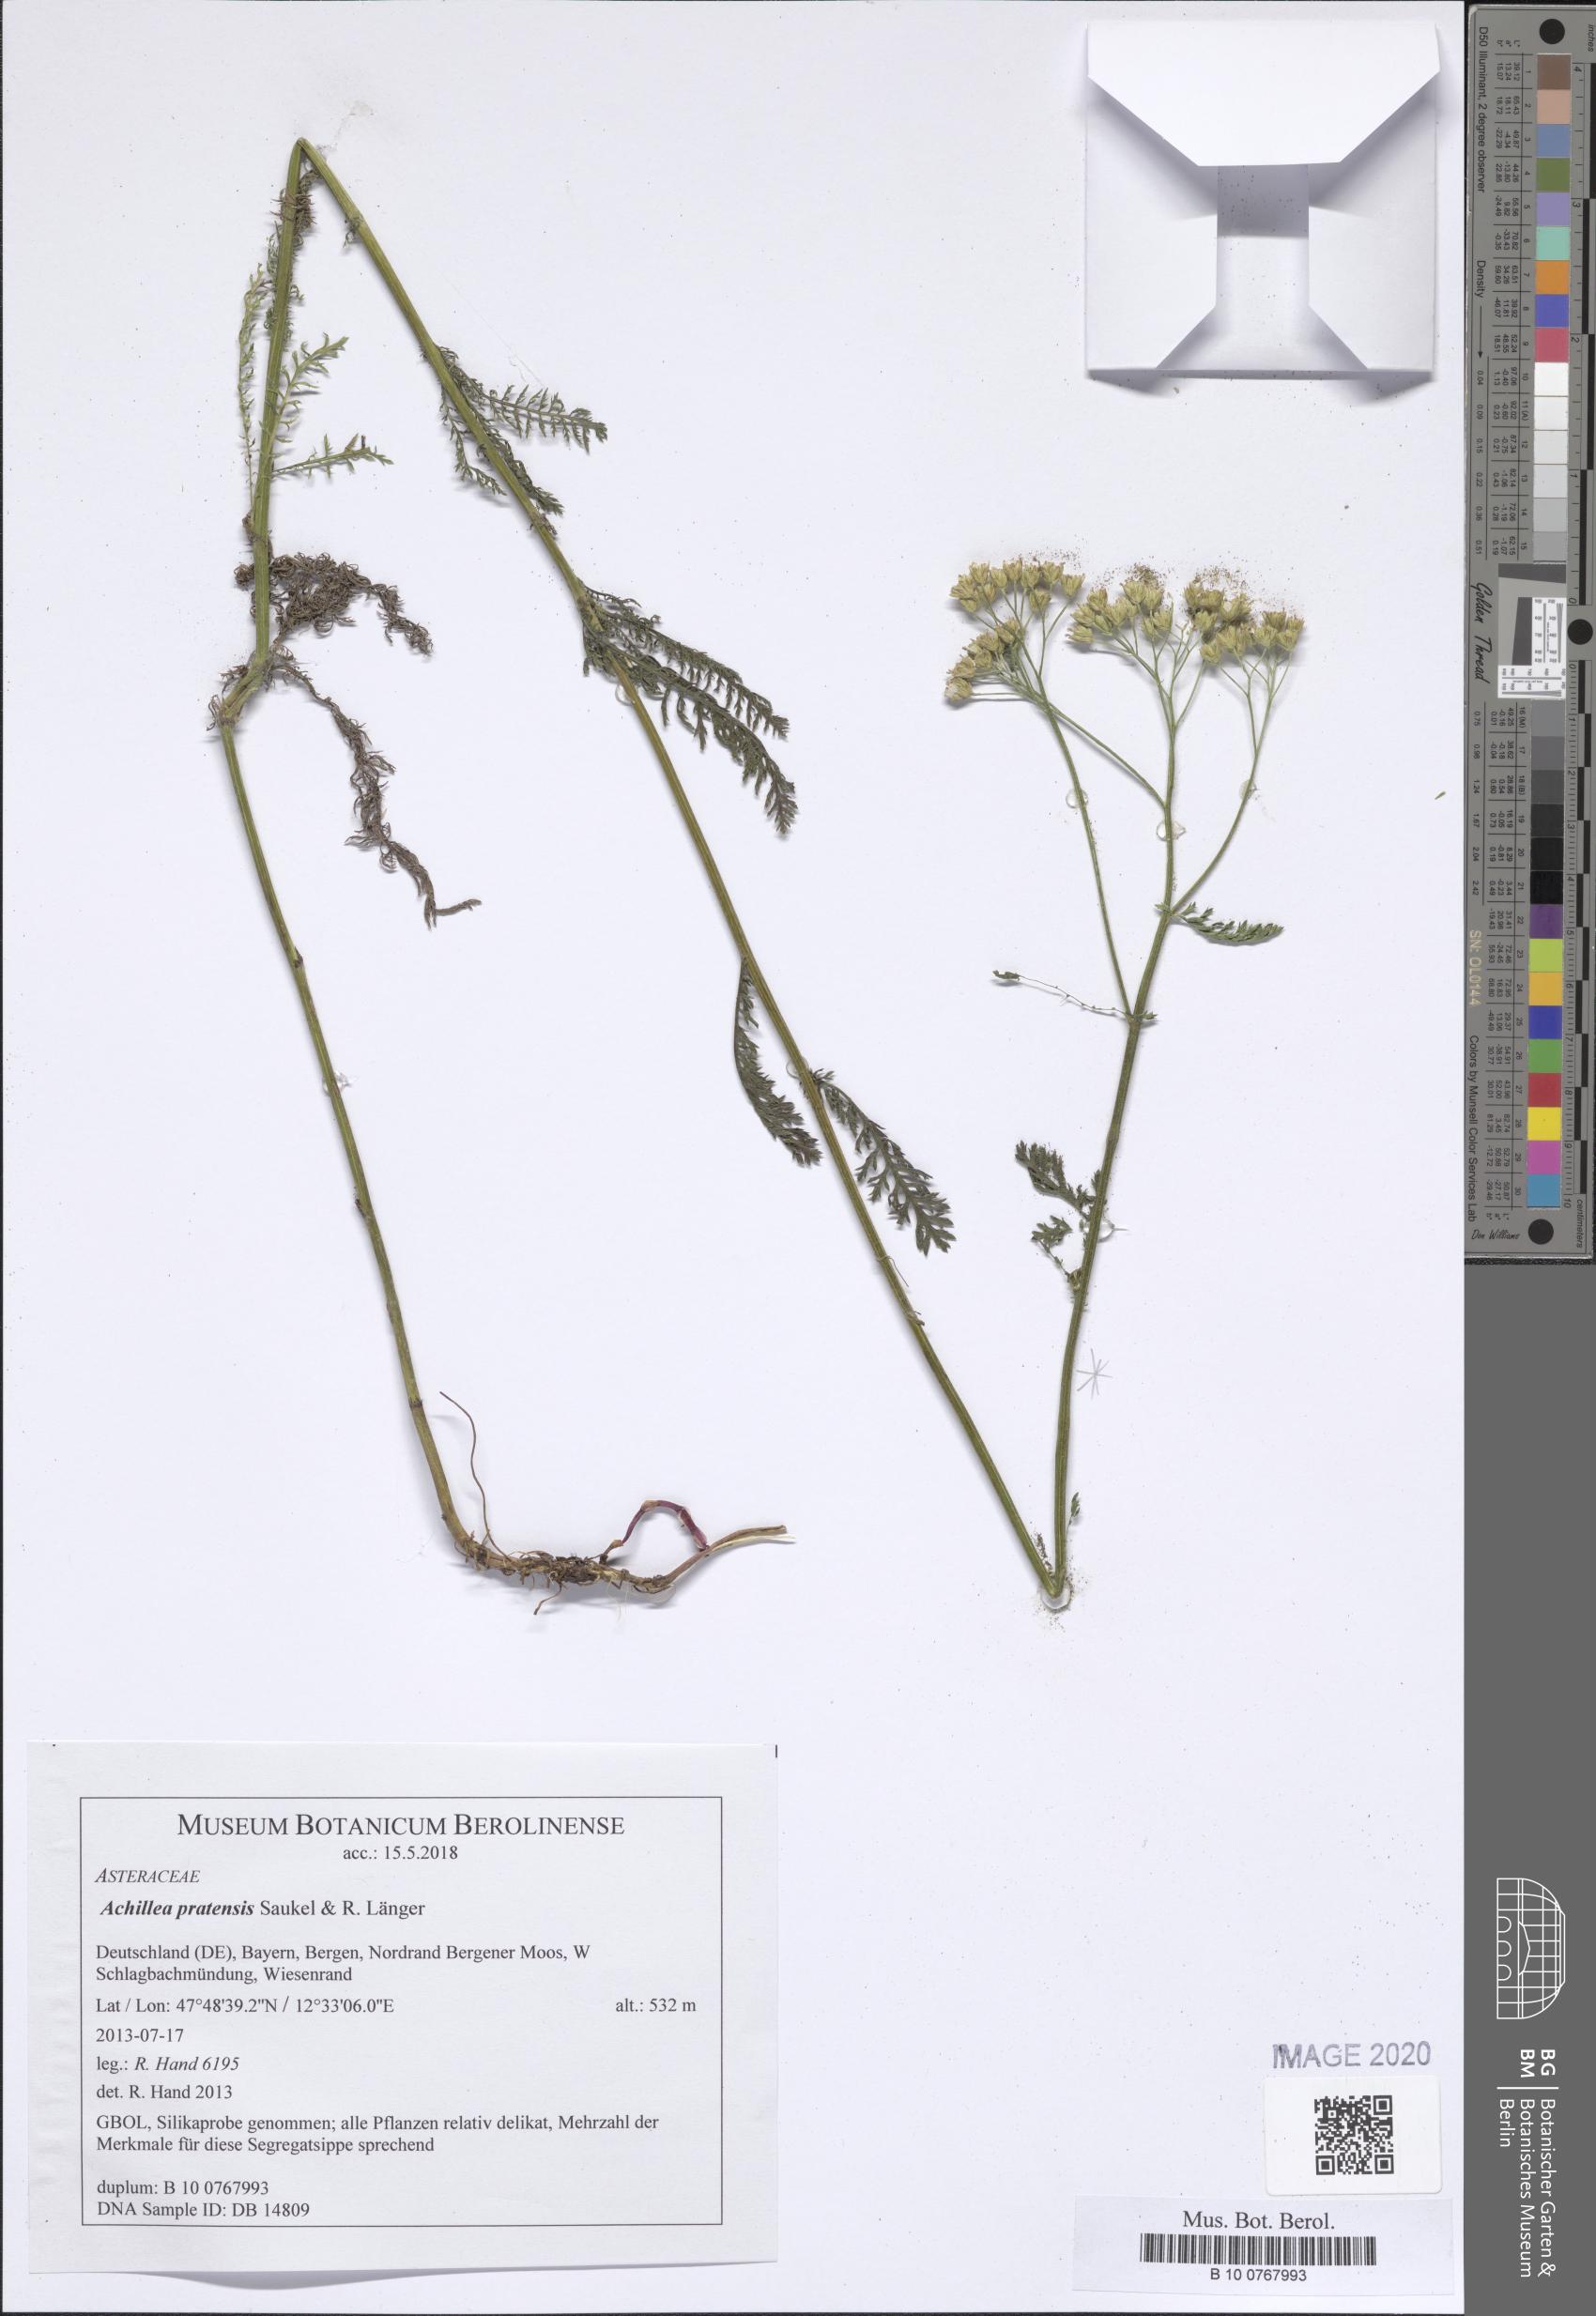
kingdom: Plantae
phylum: Tracheophyta
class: Magnoliopsida
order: Asterales
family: Asteraceae
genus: Achillea
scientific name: Achillea pratensis
